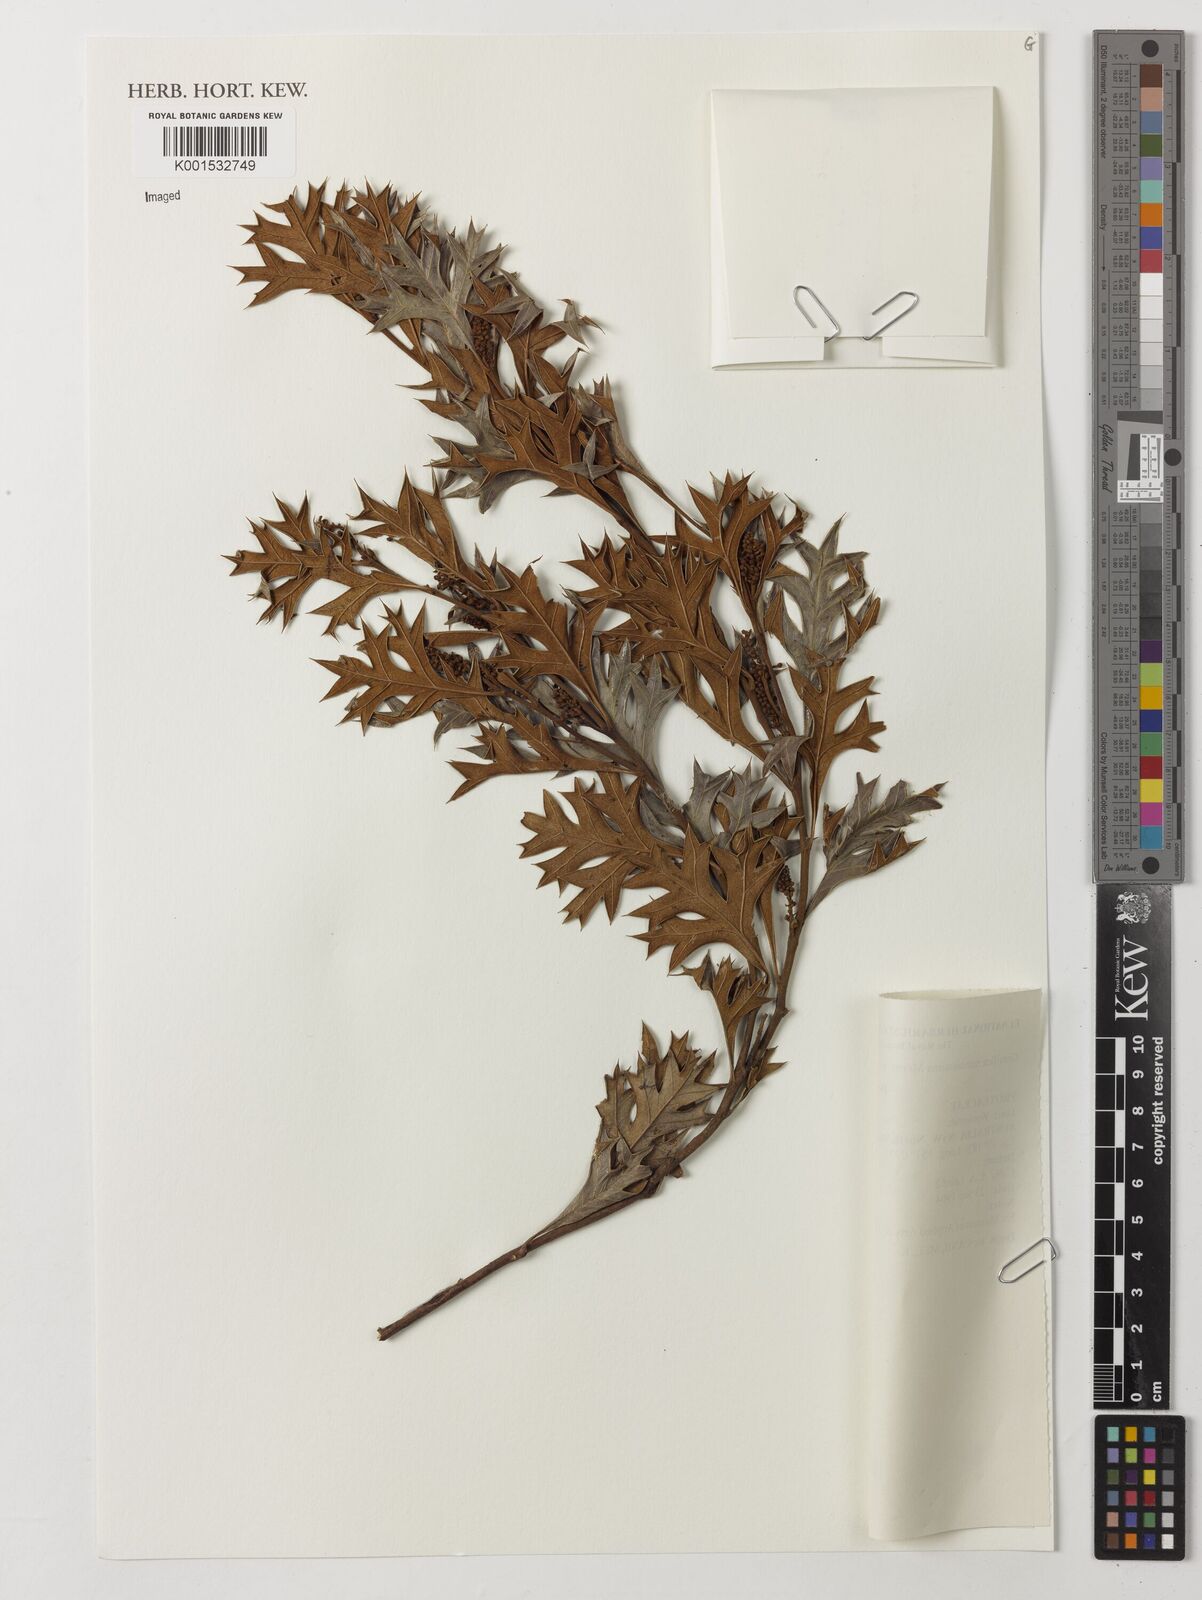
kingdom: Plantae
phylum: Tracheophyta
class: Magnoliopsida
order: Proteales
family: Proteaceae
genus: Grevillea
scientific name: Grevillea ramosissima
